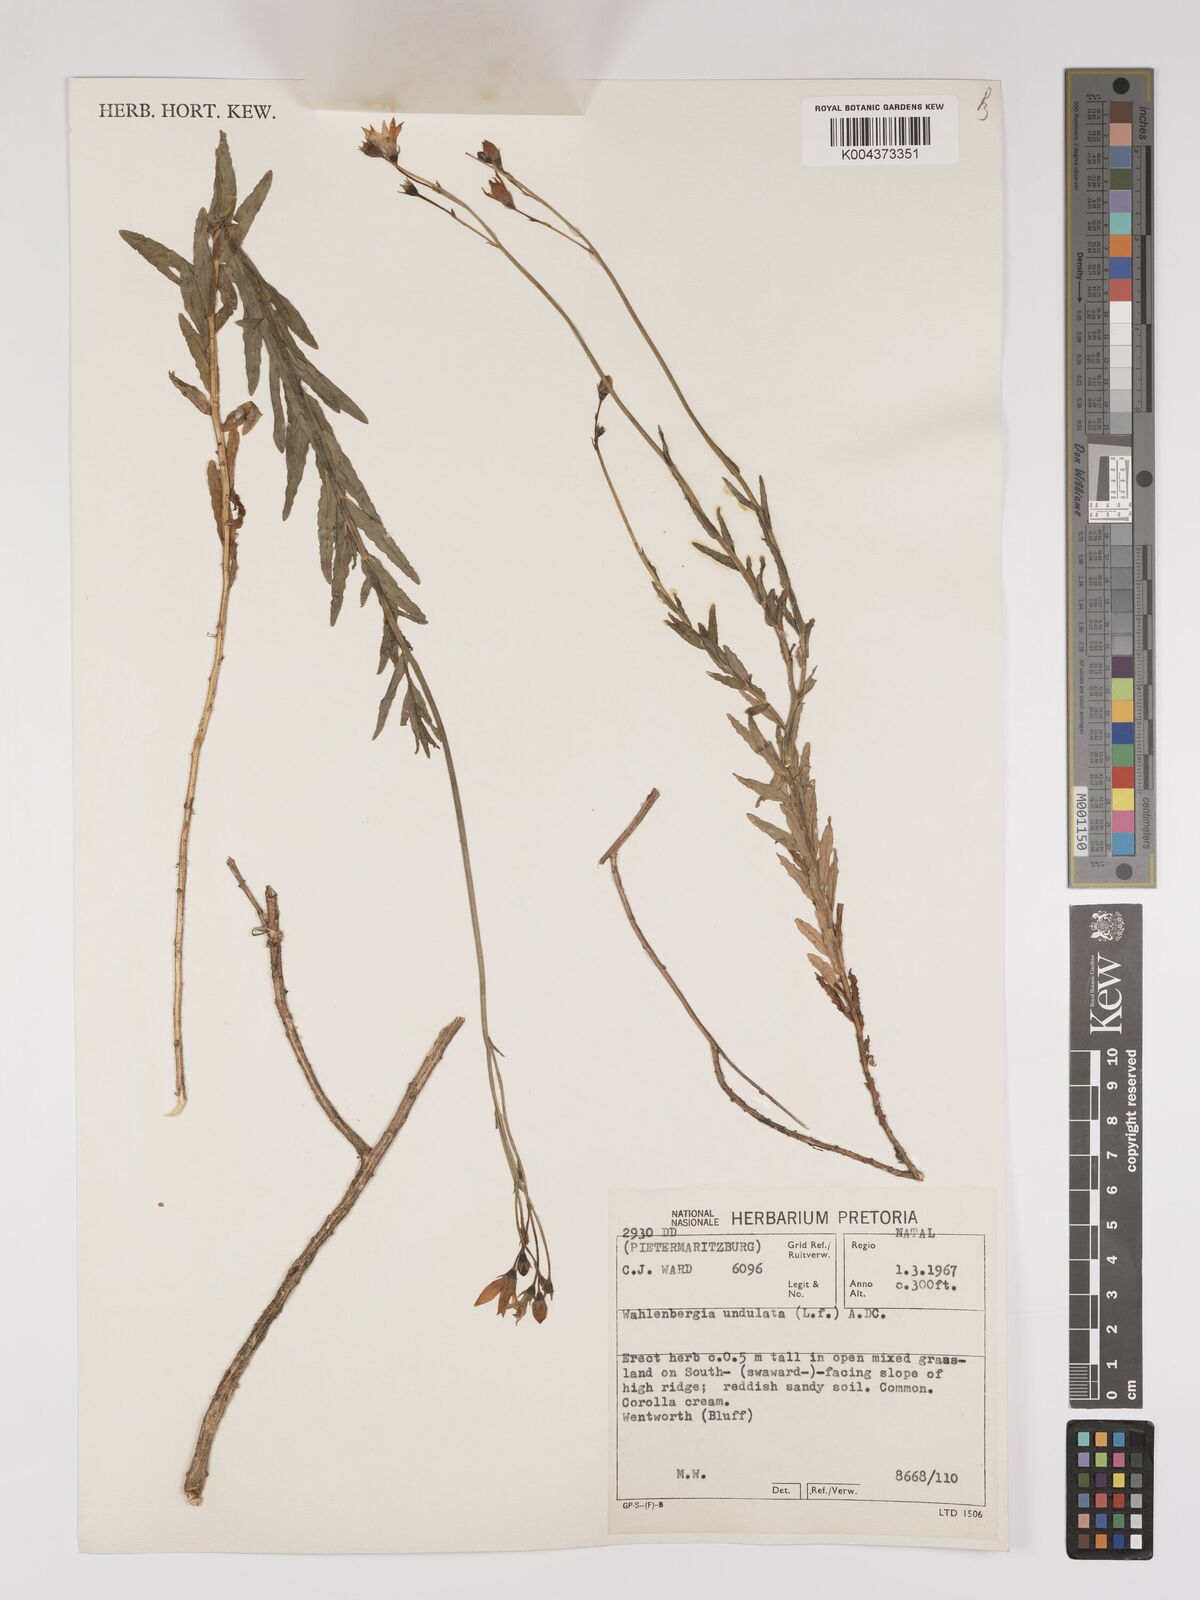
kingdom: Plantae
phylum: Tracheophyta
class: Magnoliopsida
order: Asterales
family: Campanulaceae
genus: Wahlenbergia
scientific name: Wahlenbergia undulata
